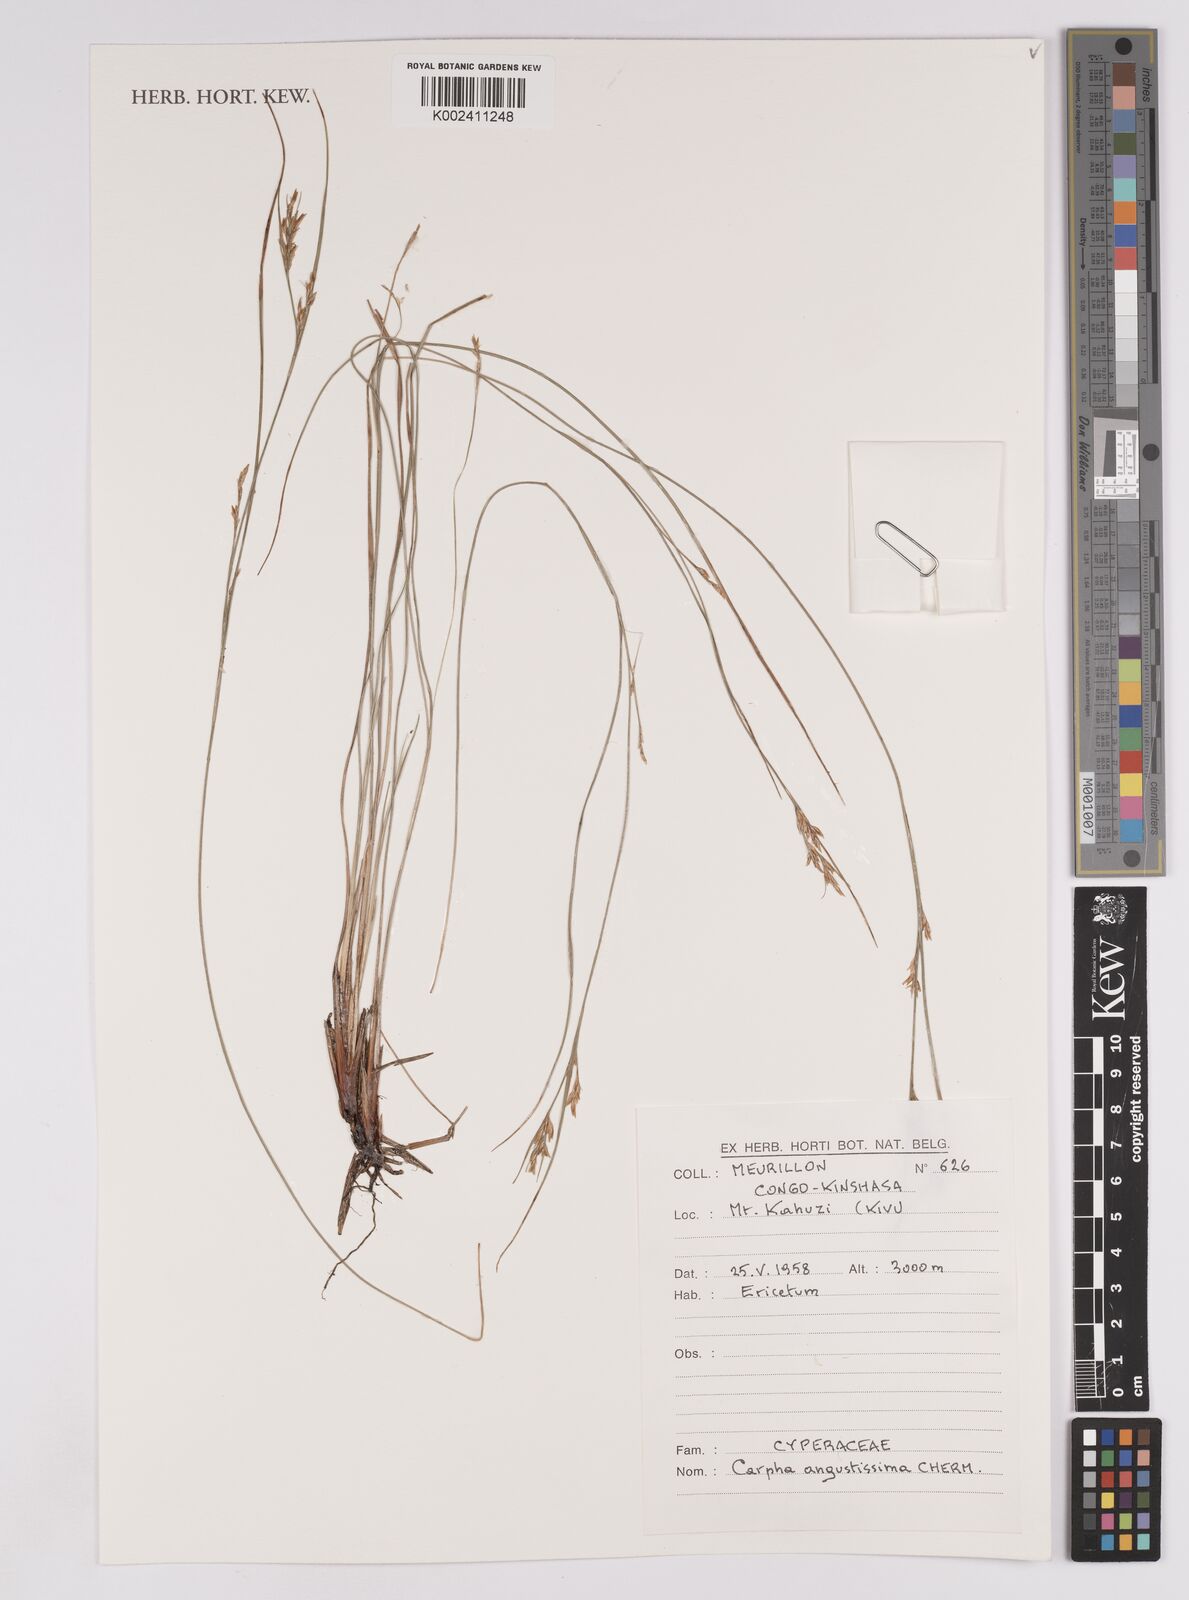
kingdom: Plantae
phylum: Tracheophyta
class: Liliopsida
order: Poales
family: Cyperaceae
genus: Carpha
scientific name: Carpha
